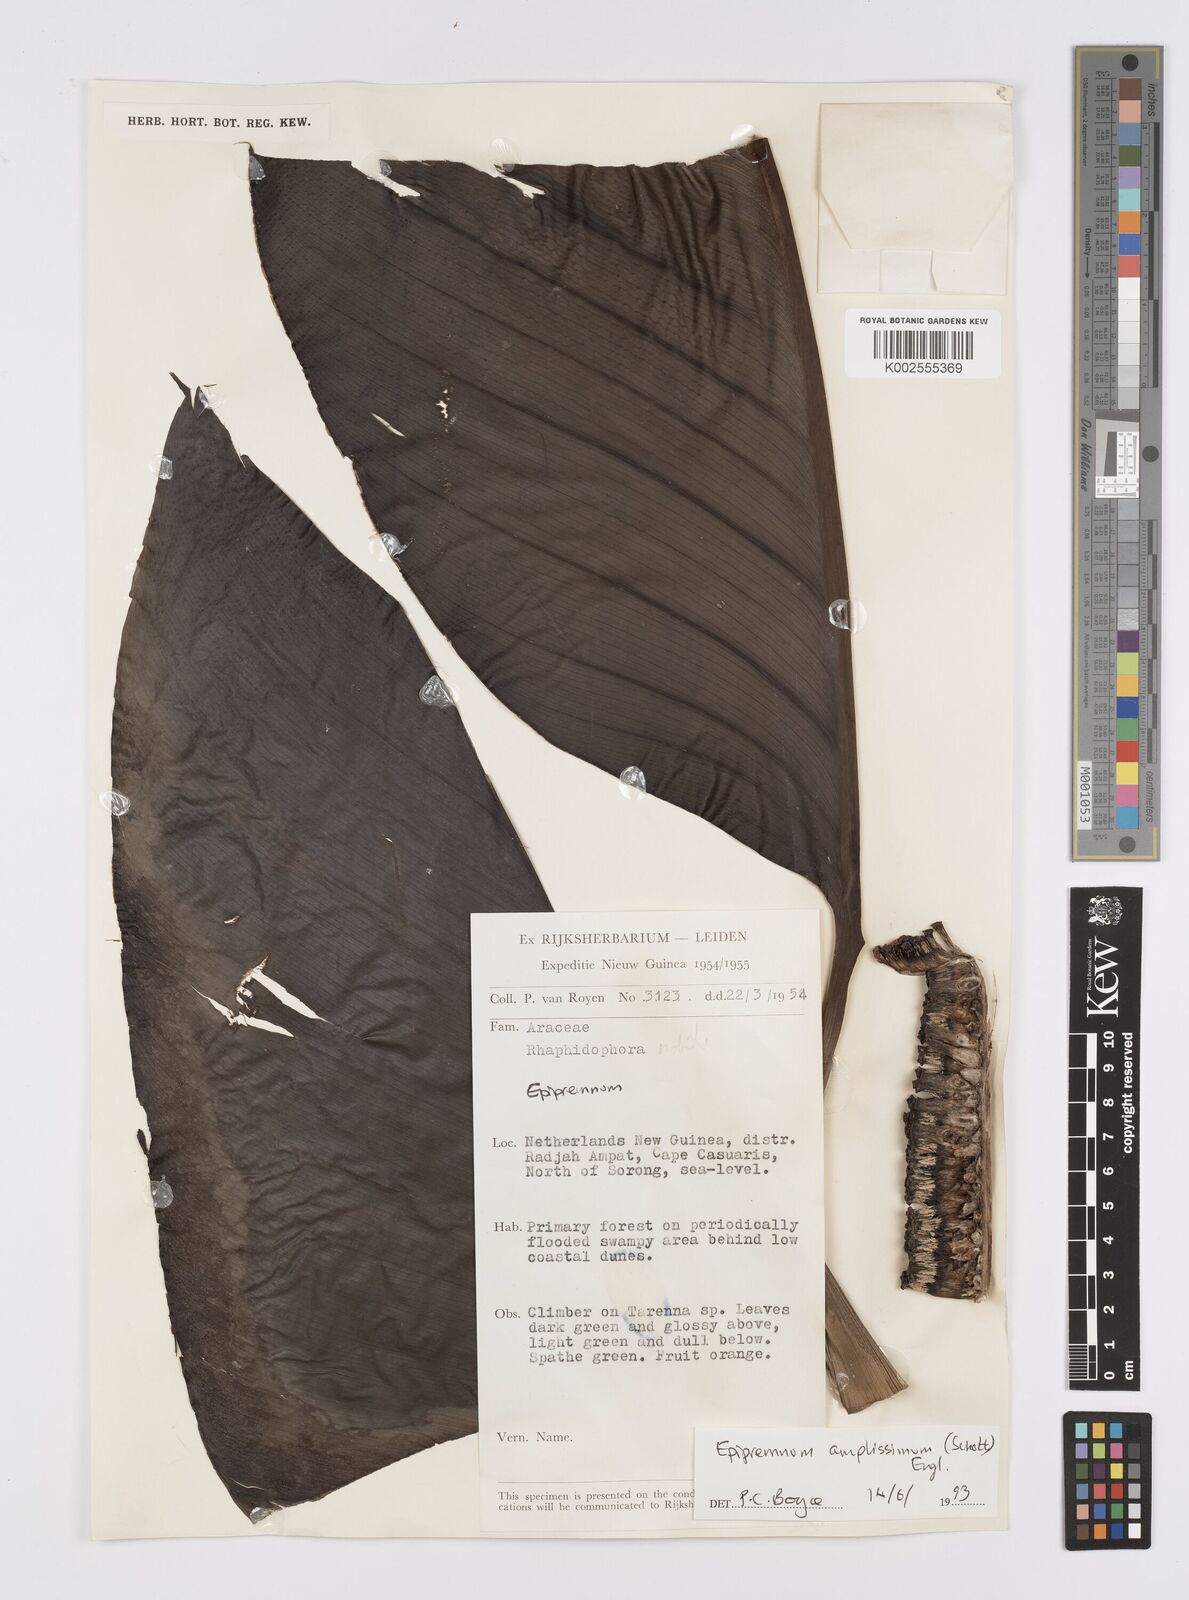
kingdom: Plantae
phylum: Tracheophyta
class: Liliopsida
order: Alismatales
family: Araceae
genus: Epipremnum
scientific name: Epipremnum amplissimum
